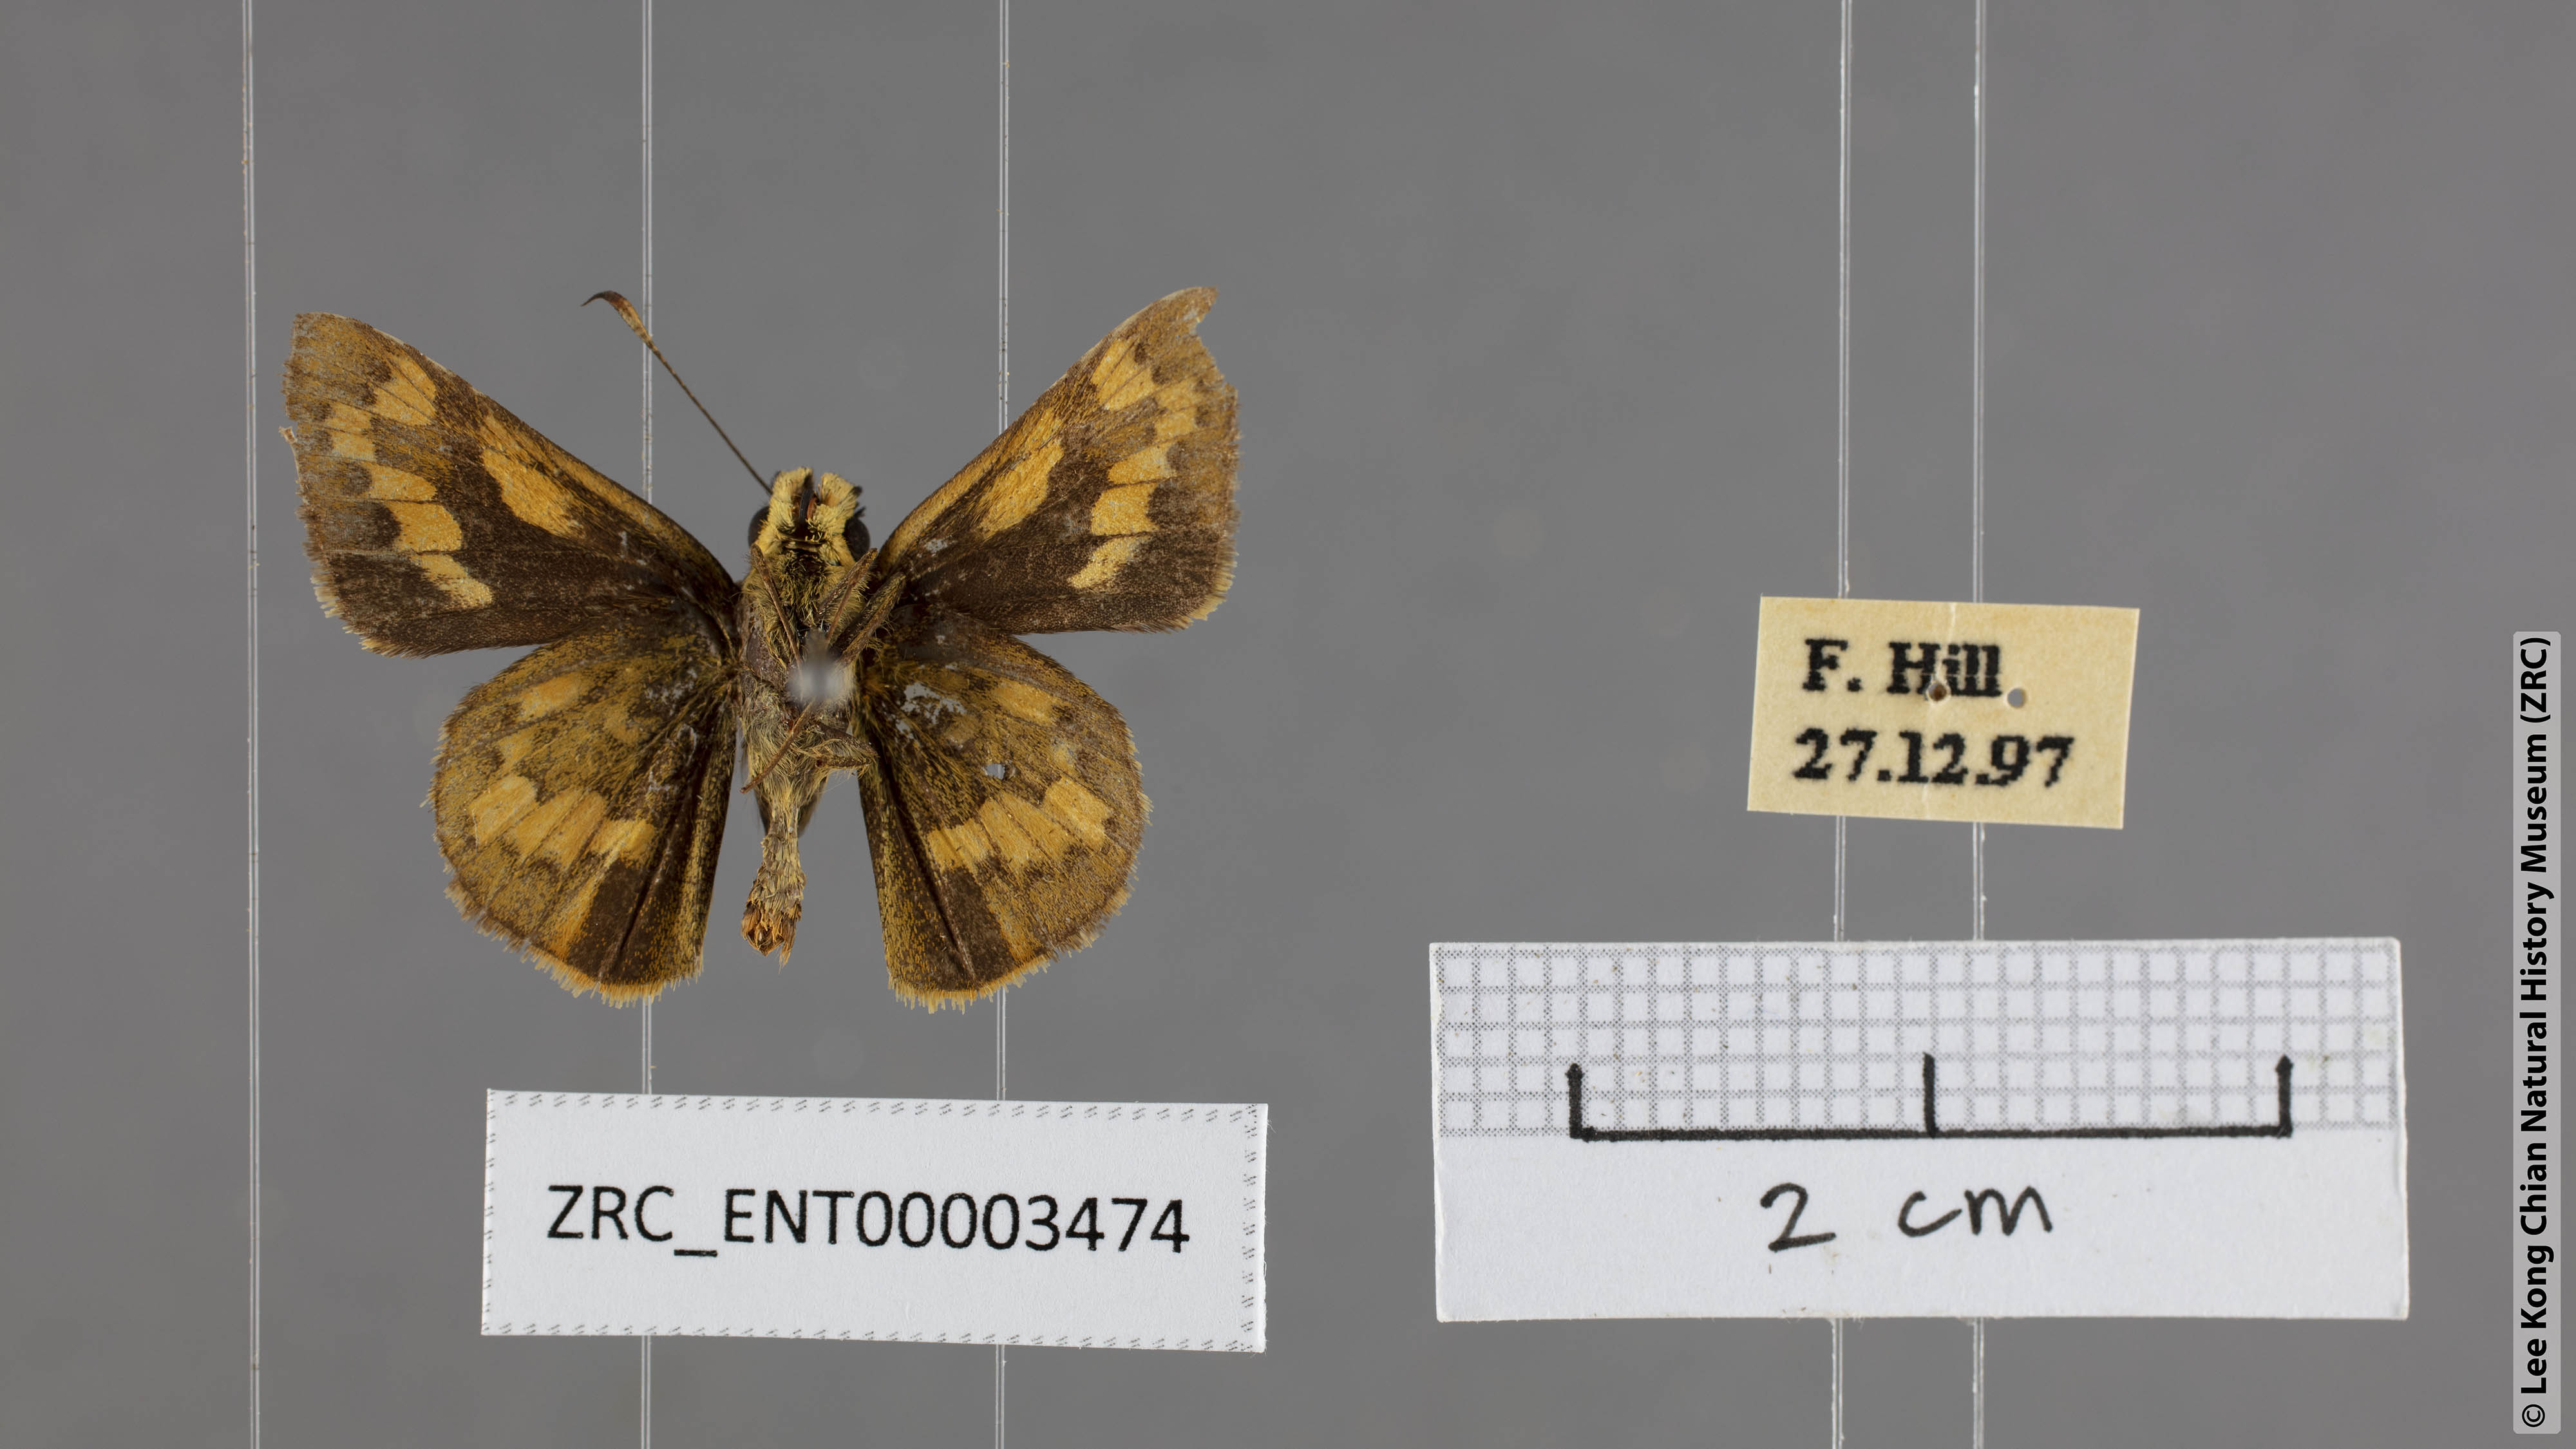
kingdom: Animalia
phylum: Arthropoda
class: Insecta
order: Lepidoptera
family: Hesperiidae
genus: Potanthus
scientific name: Potanthus lydia
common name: Lydia dart
